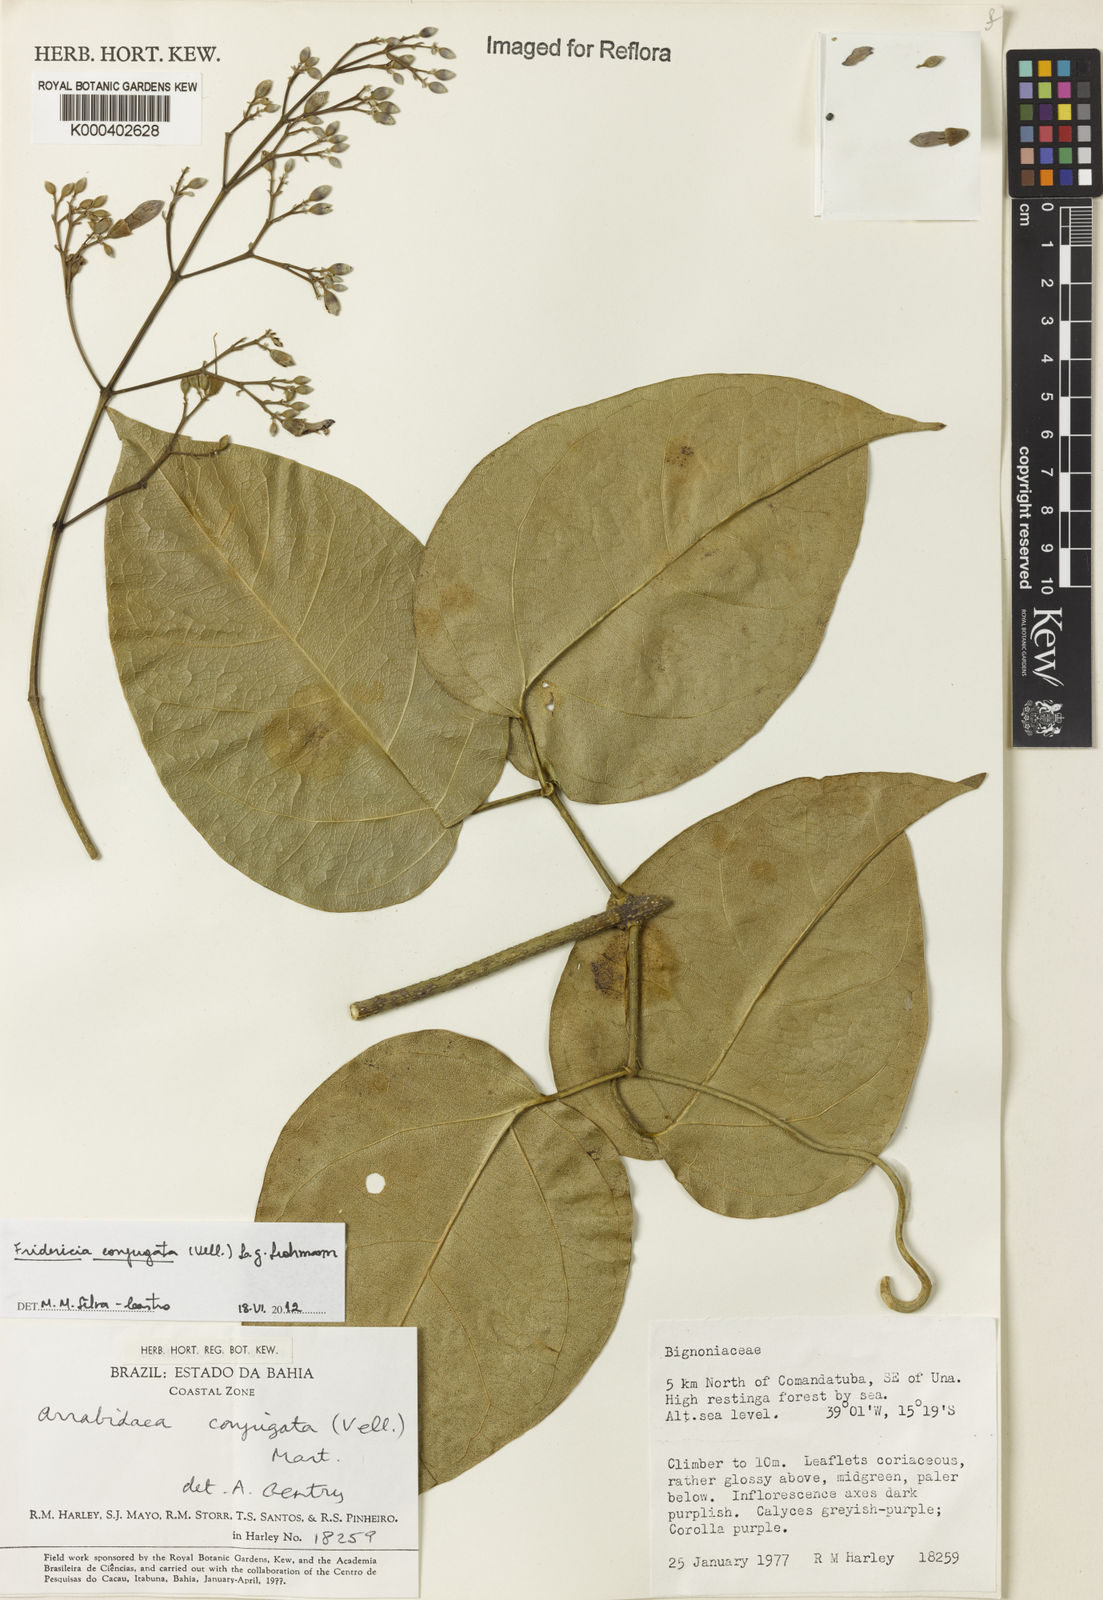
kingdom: Plantae
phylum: Tracheophyta
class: Magnoliopsida
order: Lamiales
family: Bignoniaceae
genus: Fridericia
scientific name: Fridericia conjugata
